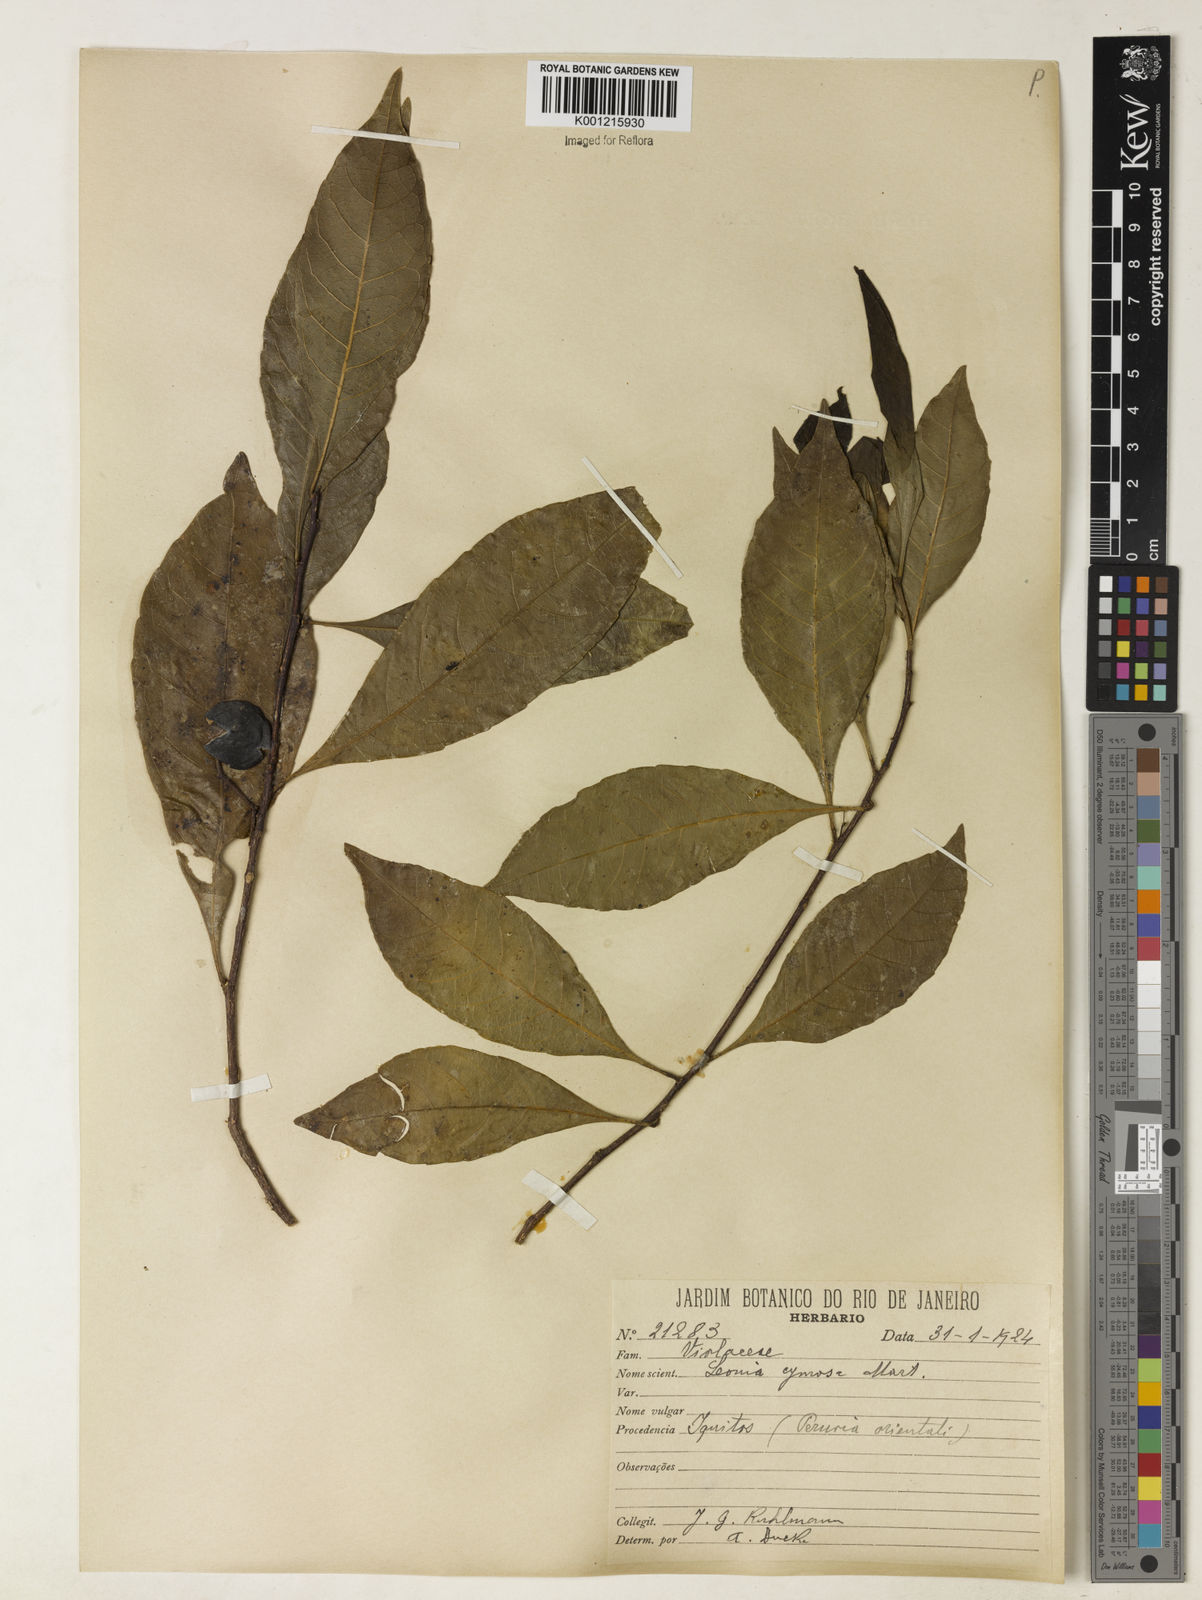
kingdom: Plantae
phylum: Tracheophyta
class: Magnoliopsida
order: Malpighiales
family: Violaceae
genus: Leonia
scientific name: Leonia cymosa
